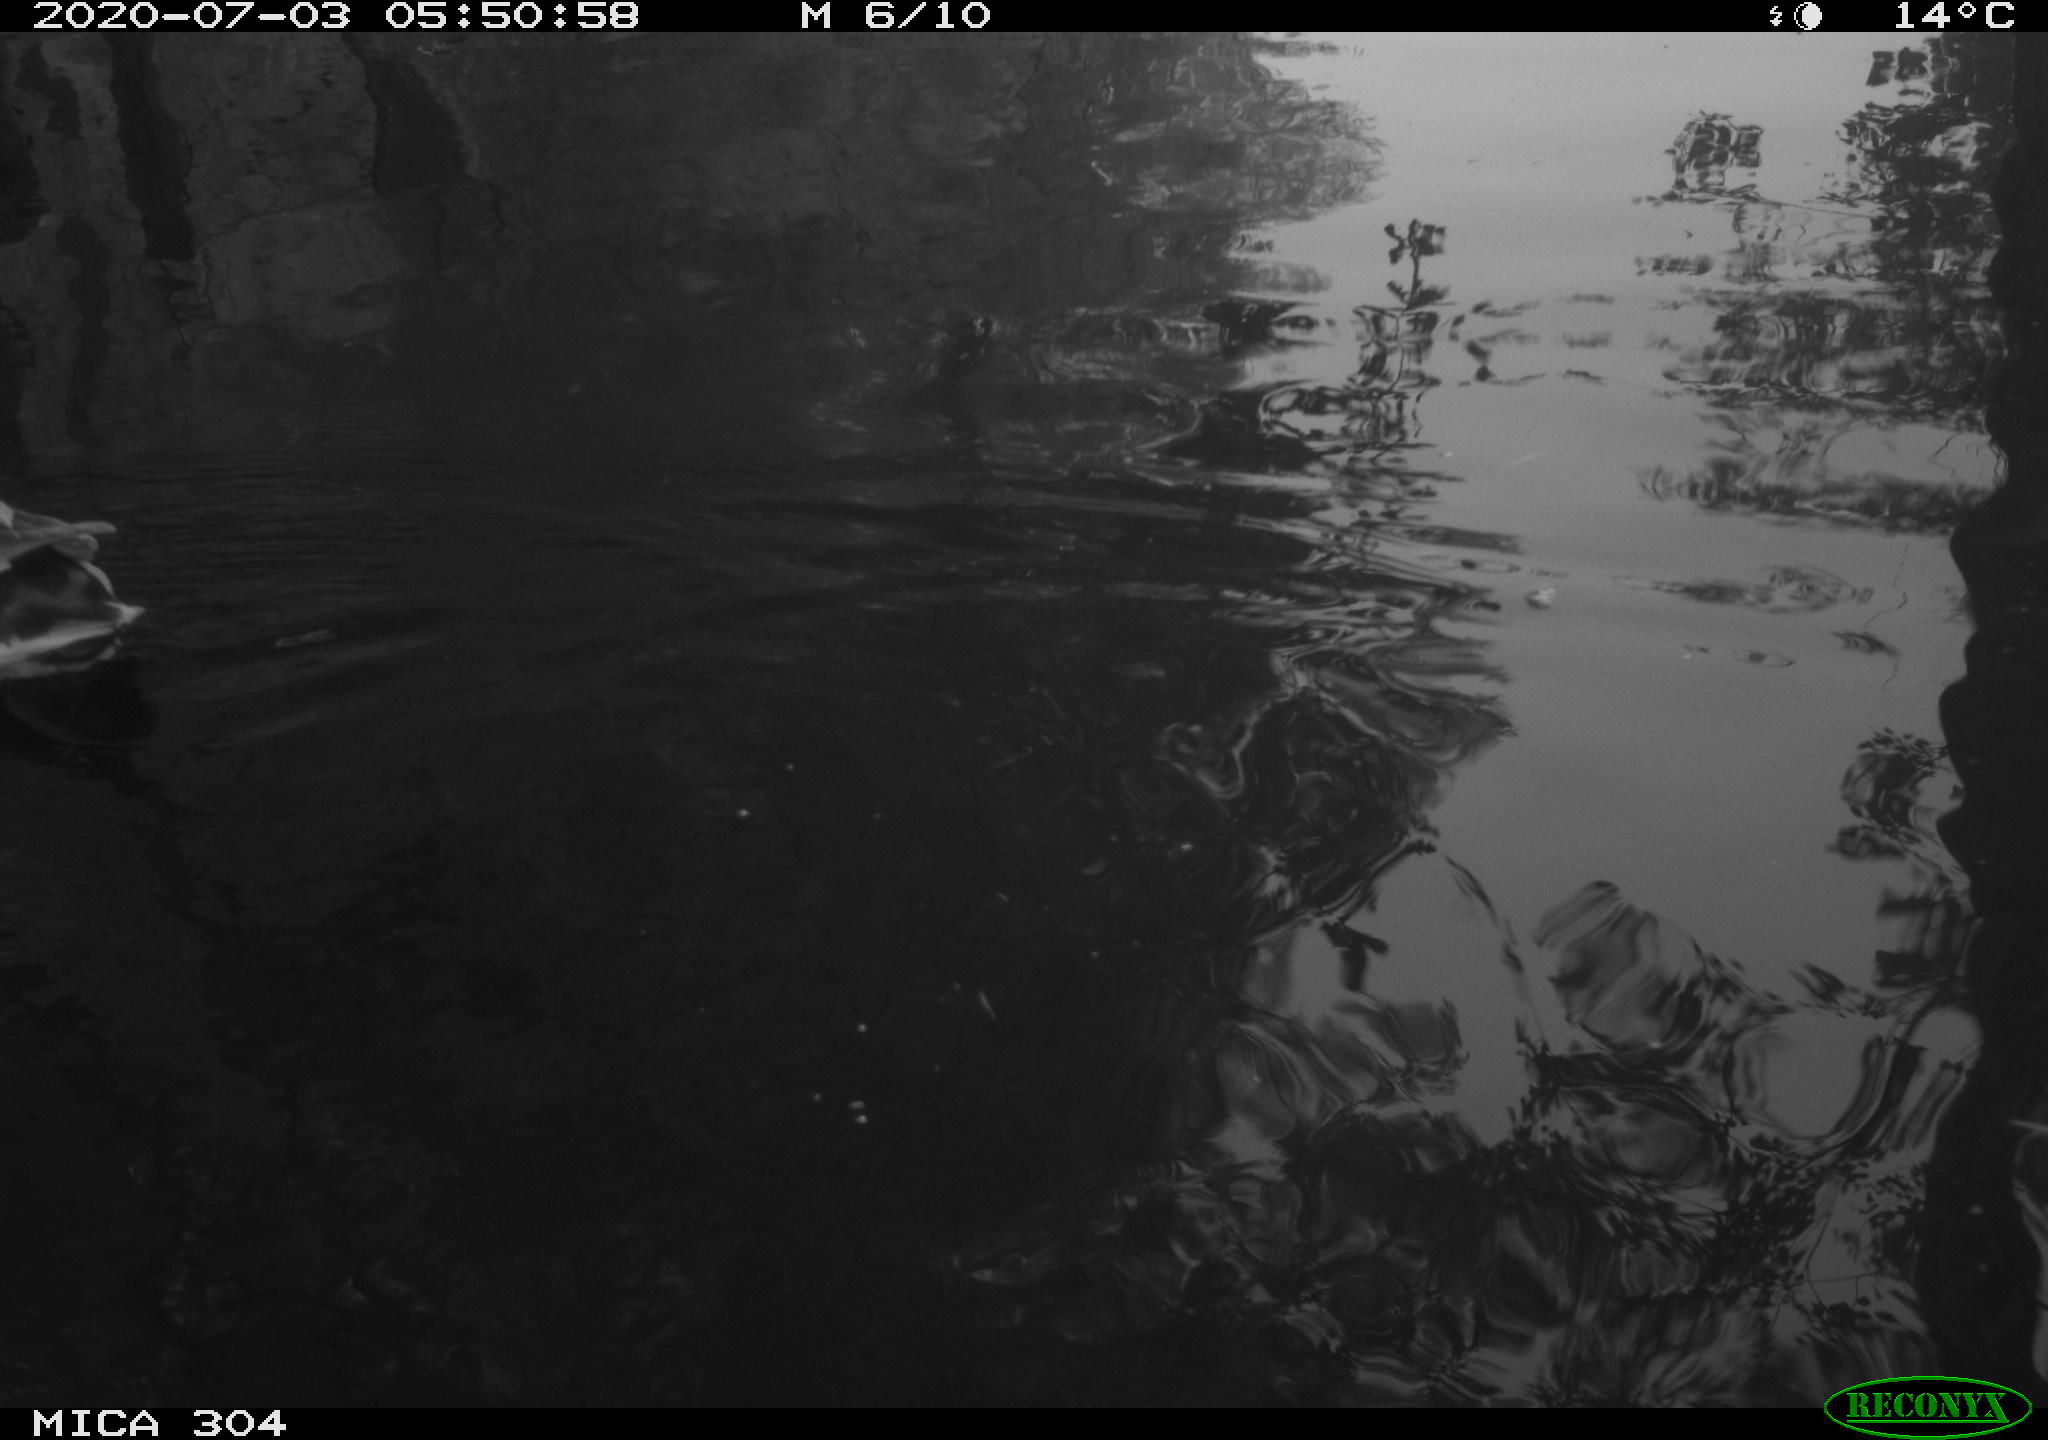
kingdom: Animalia
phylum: Chordata
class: Aves
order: Anseriformes
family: Anatidae
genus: Anas
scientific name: Anas platyrhynchos
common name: Mallard
